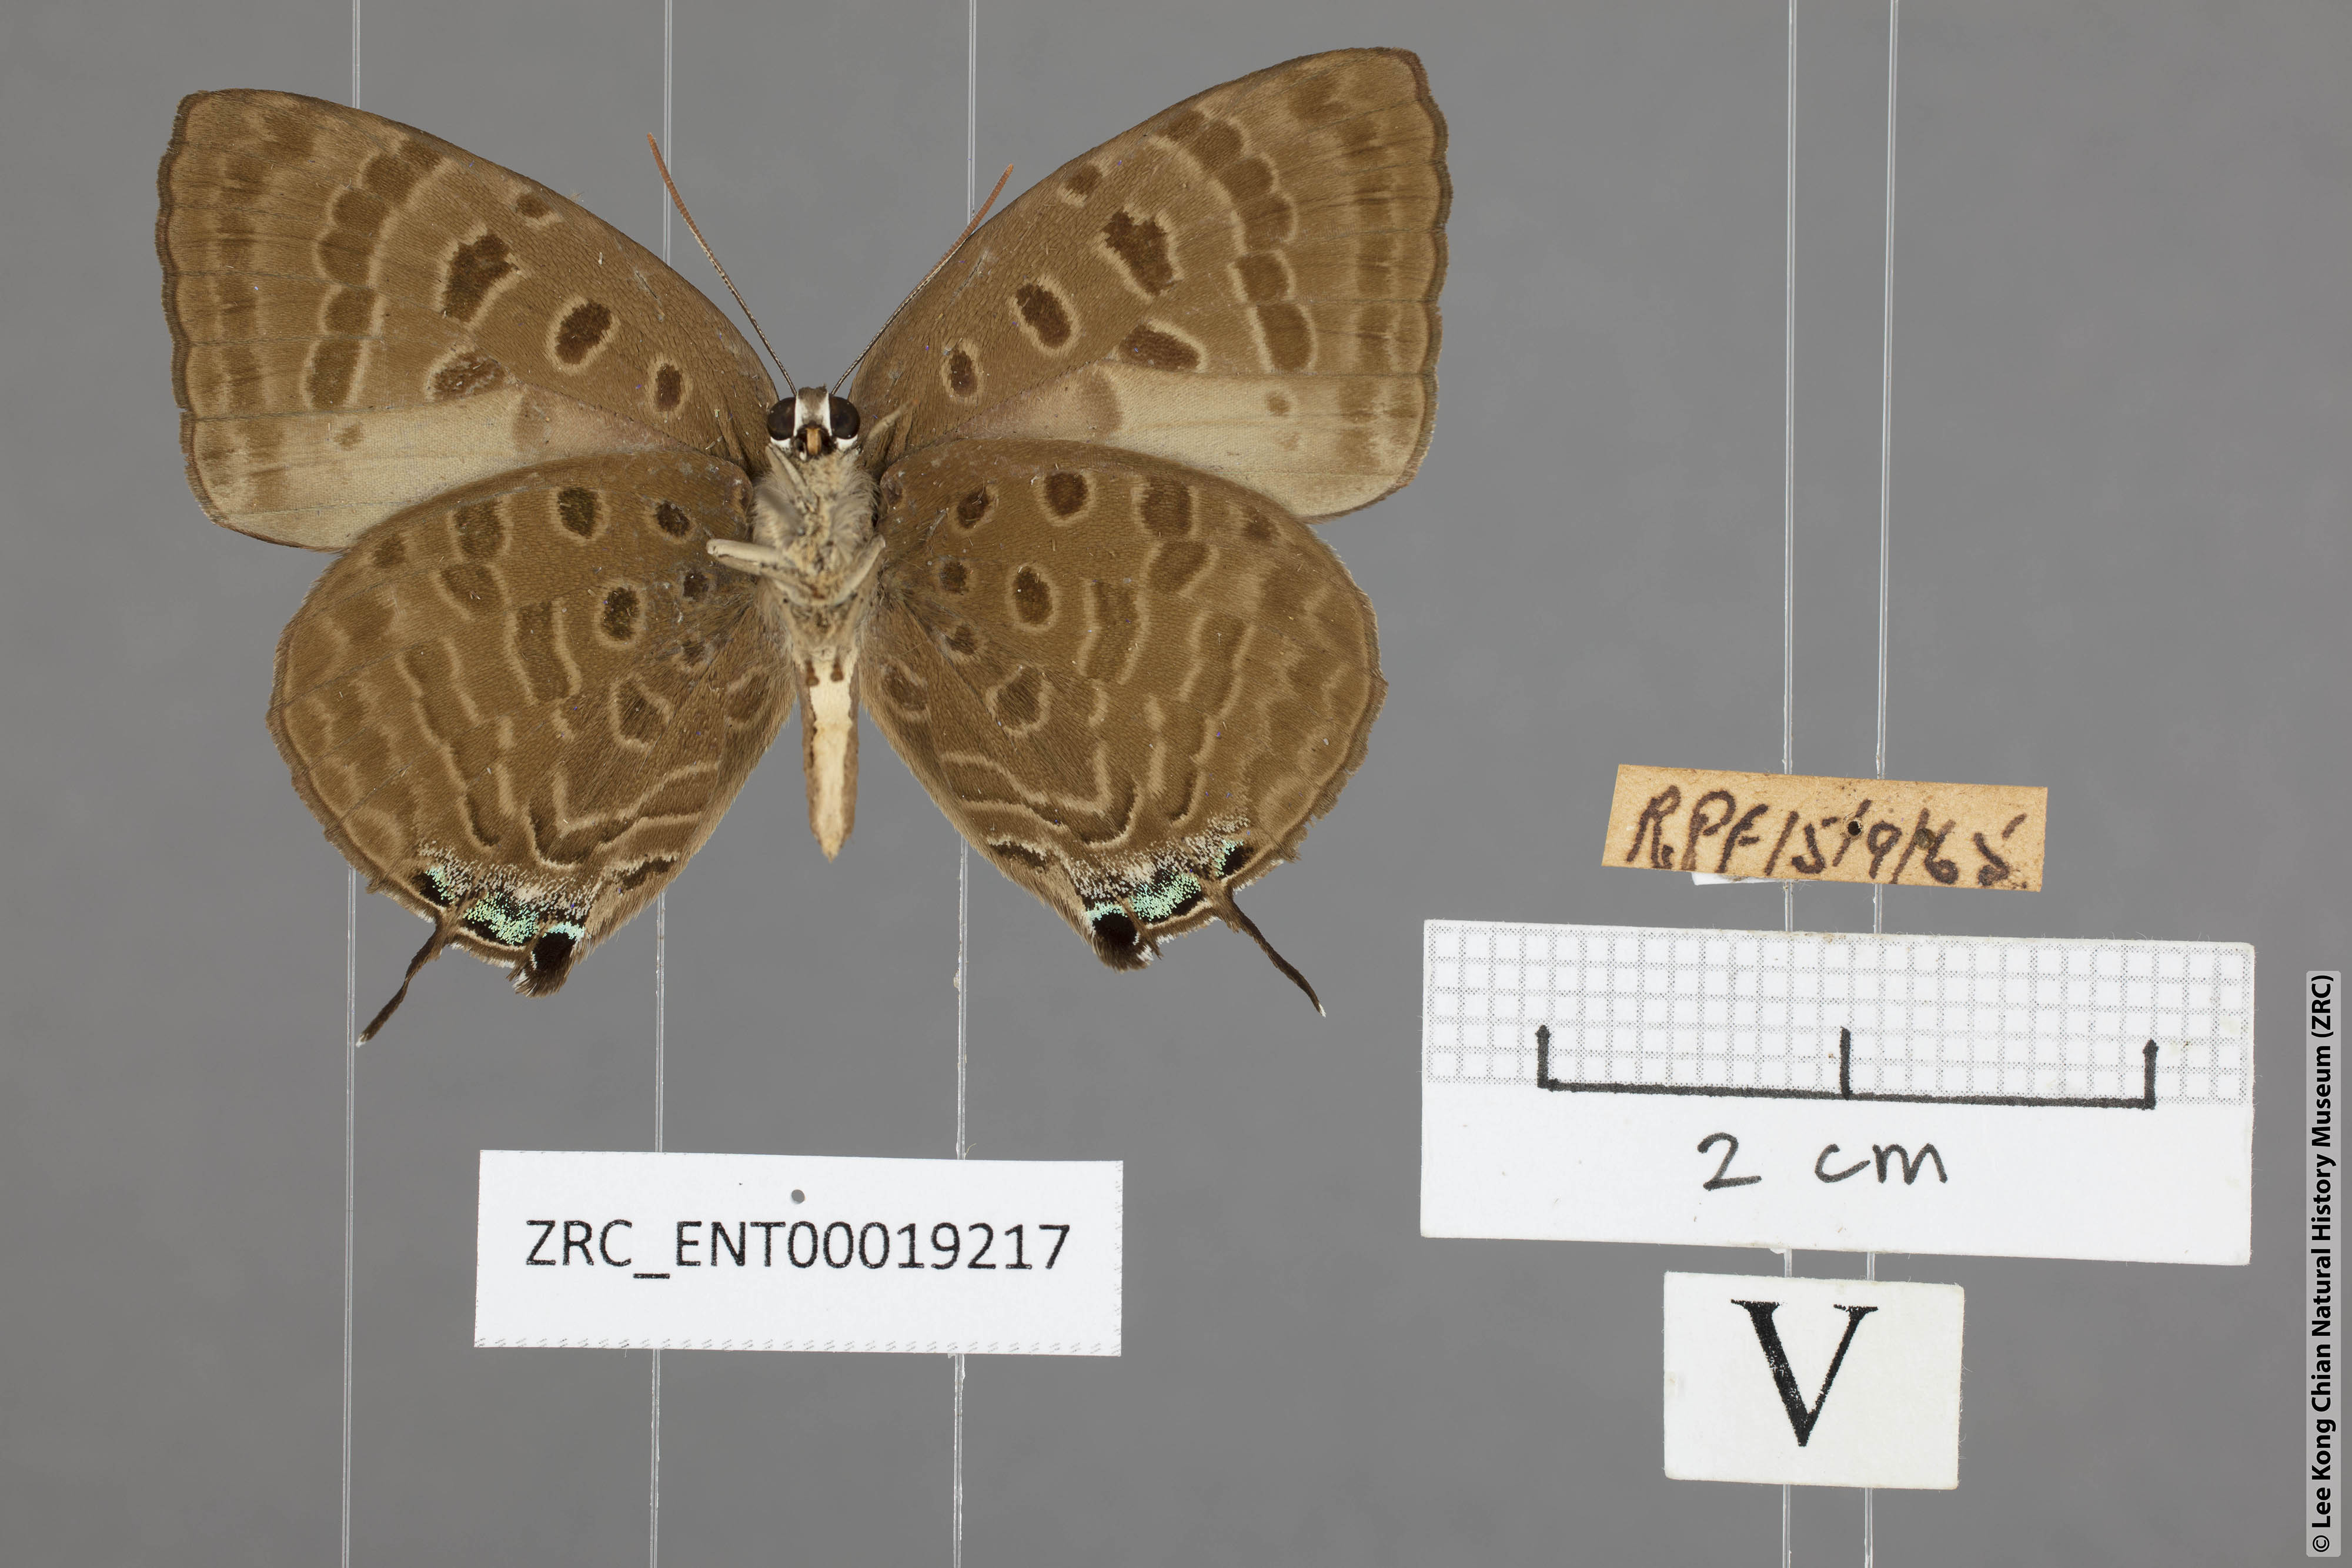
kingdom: Animalia
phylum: Arthropoda
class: Insecta
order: Lepidoptera
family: Lycaenidae
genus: Arhopala
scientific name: Arhopala athada
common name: Vinous oakblue
